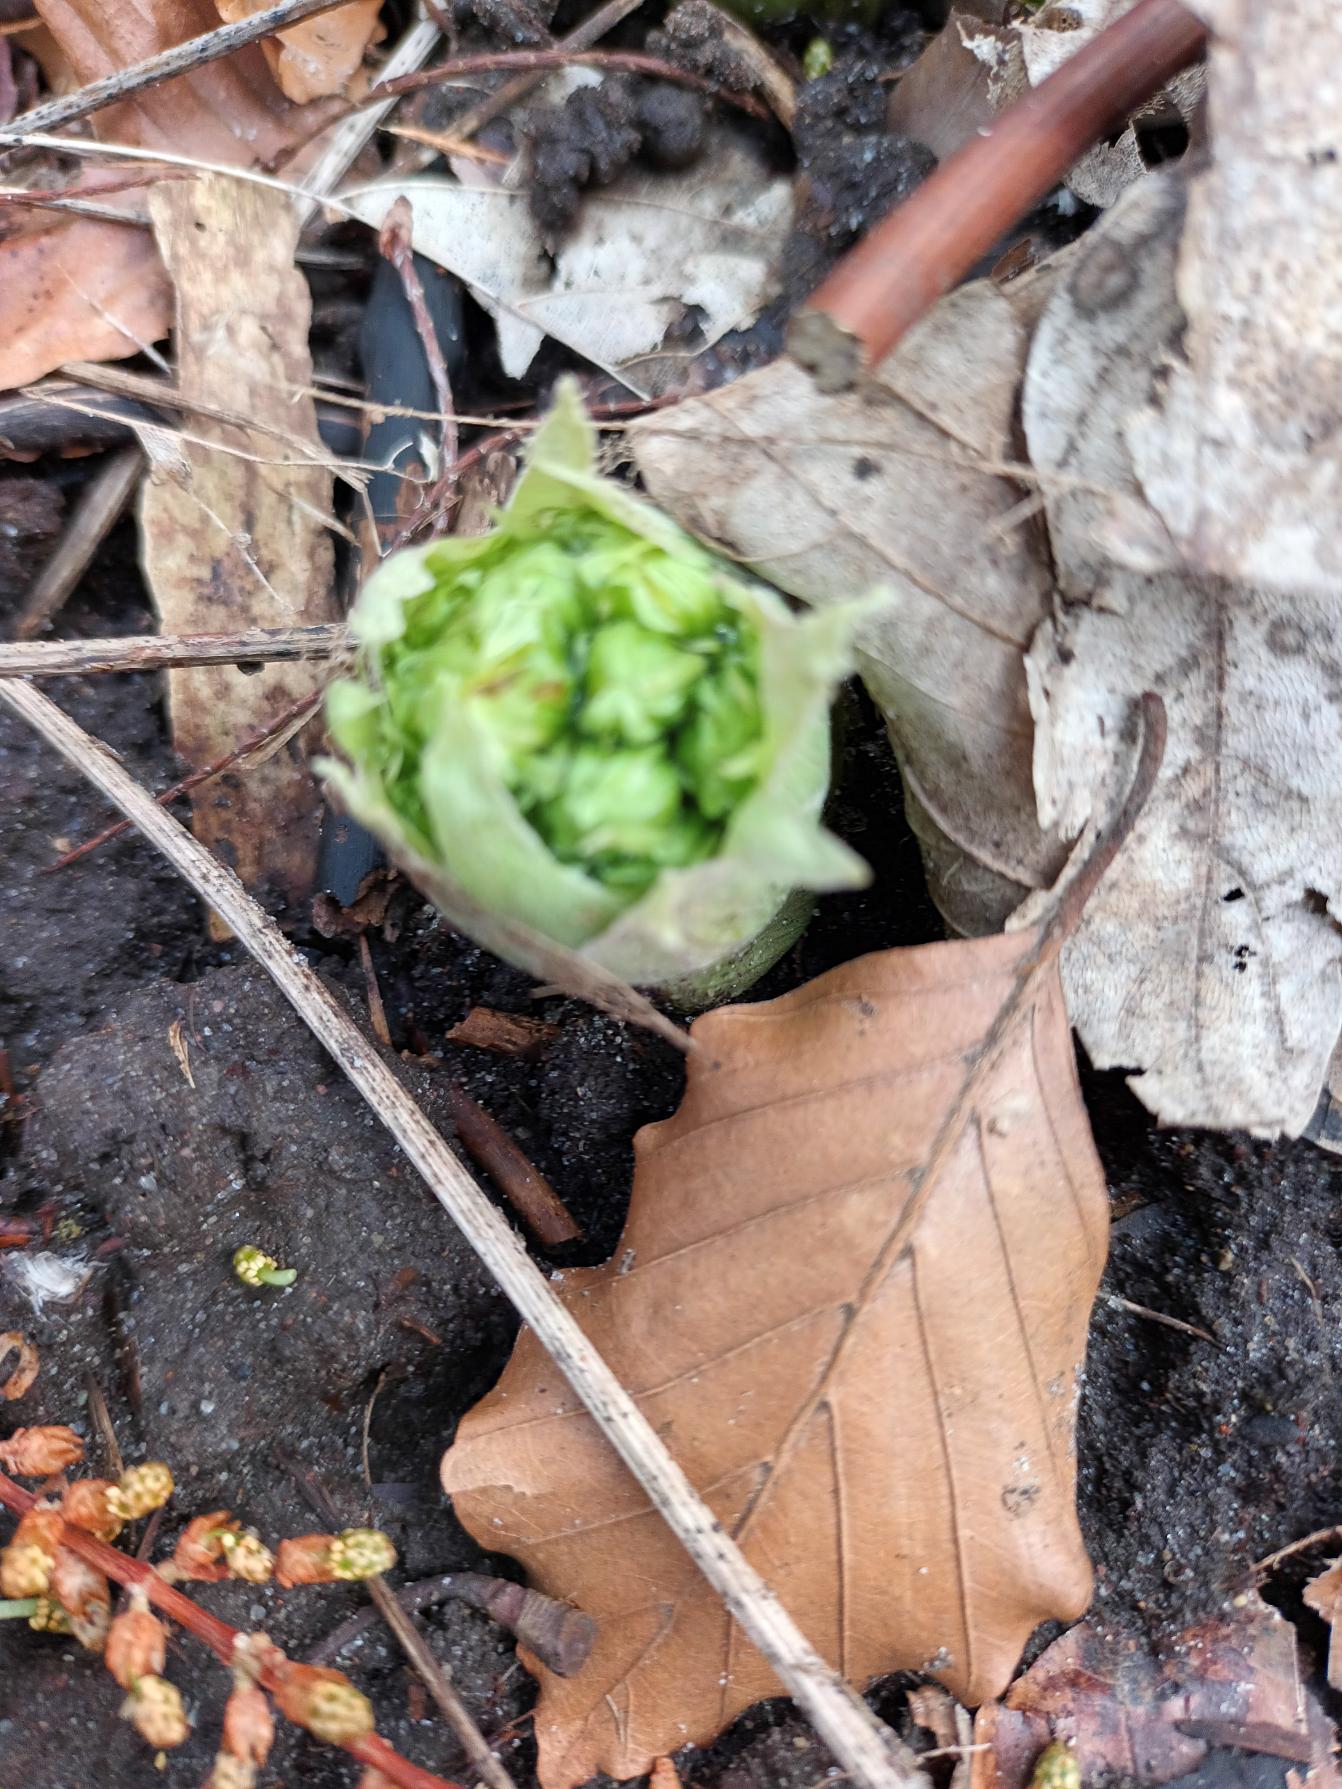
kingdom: Plantae
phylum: Tracheophyta
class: Magnoliopsida
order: Asterales
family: Asteraceae
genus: Petasites
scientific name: Petasites albus
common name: Hvid hestehov
